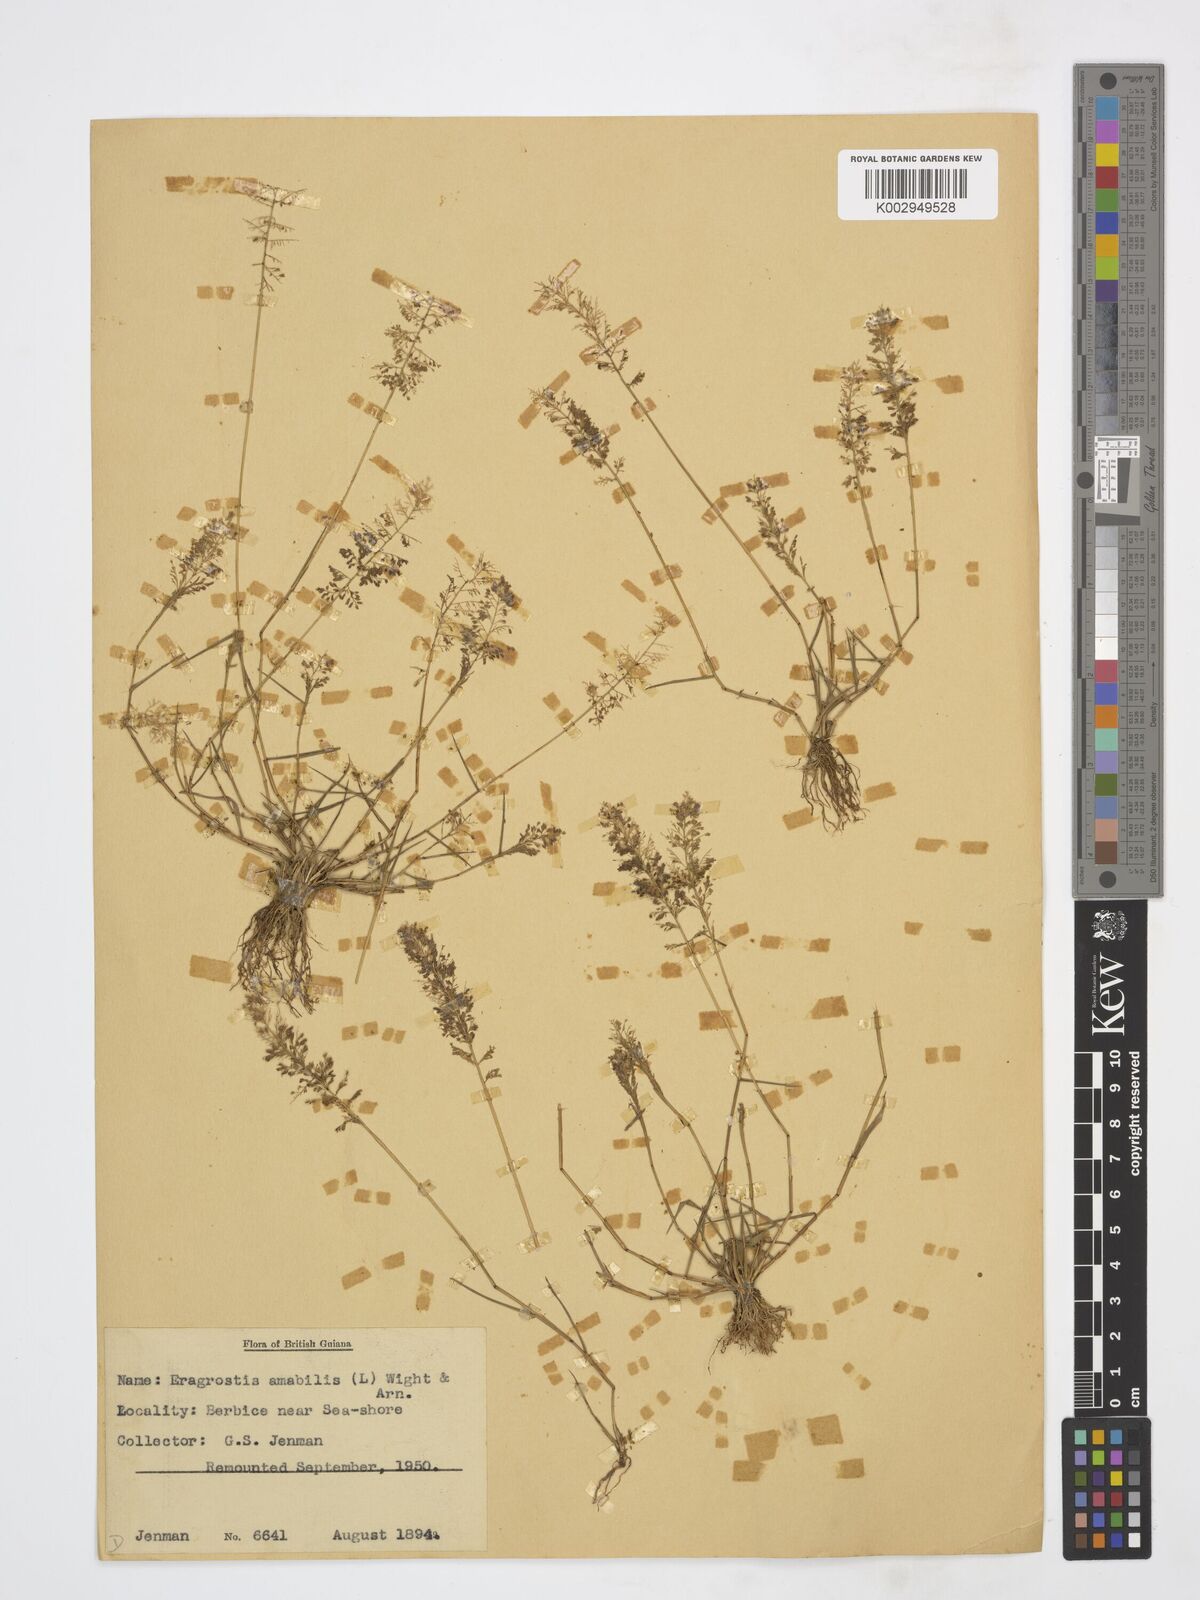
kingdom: Plantae
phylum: Tracheophyta
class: Liliopsida
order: Poales
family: Poaceae
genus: Eragrostis
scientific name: Eragrostis viscosa
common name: Sticky love grass
